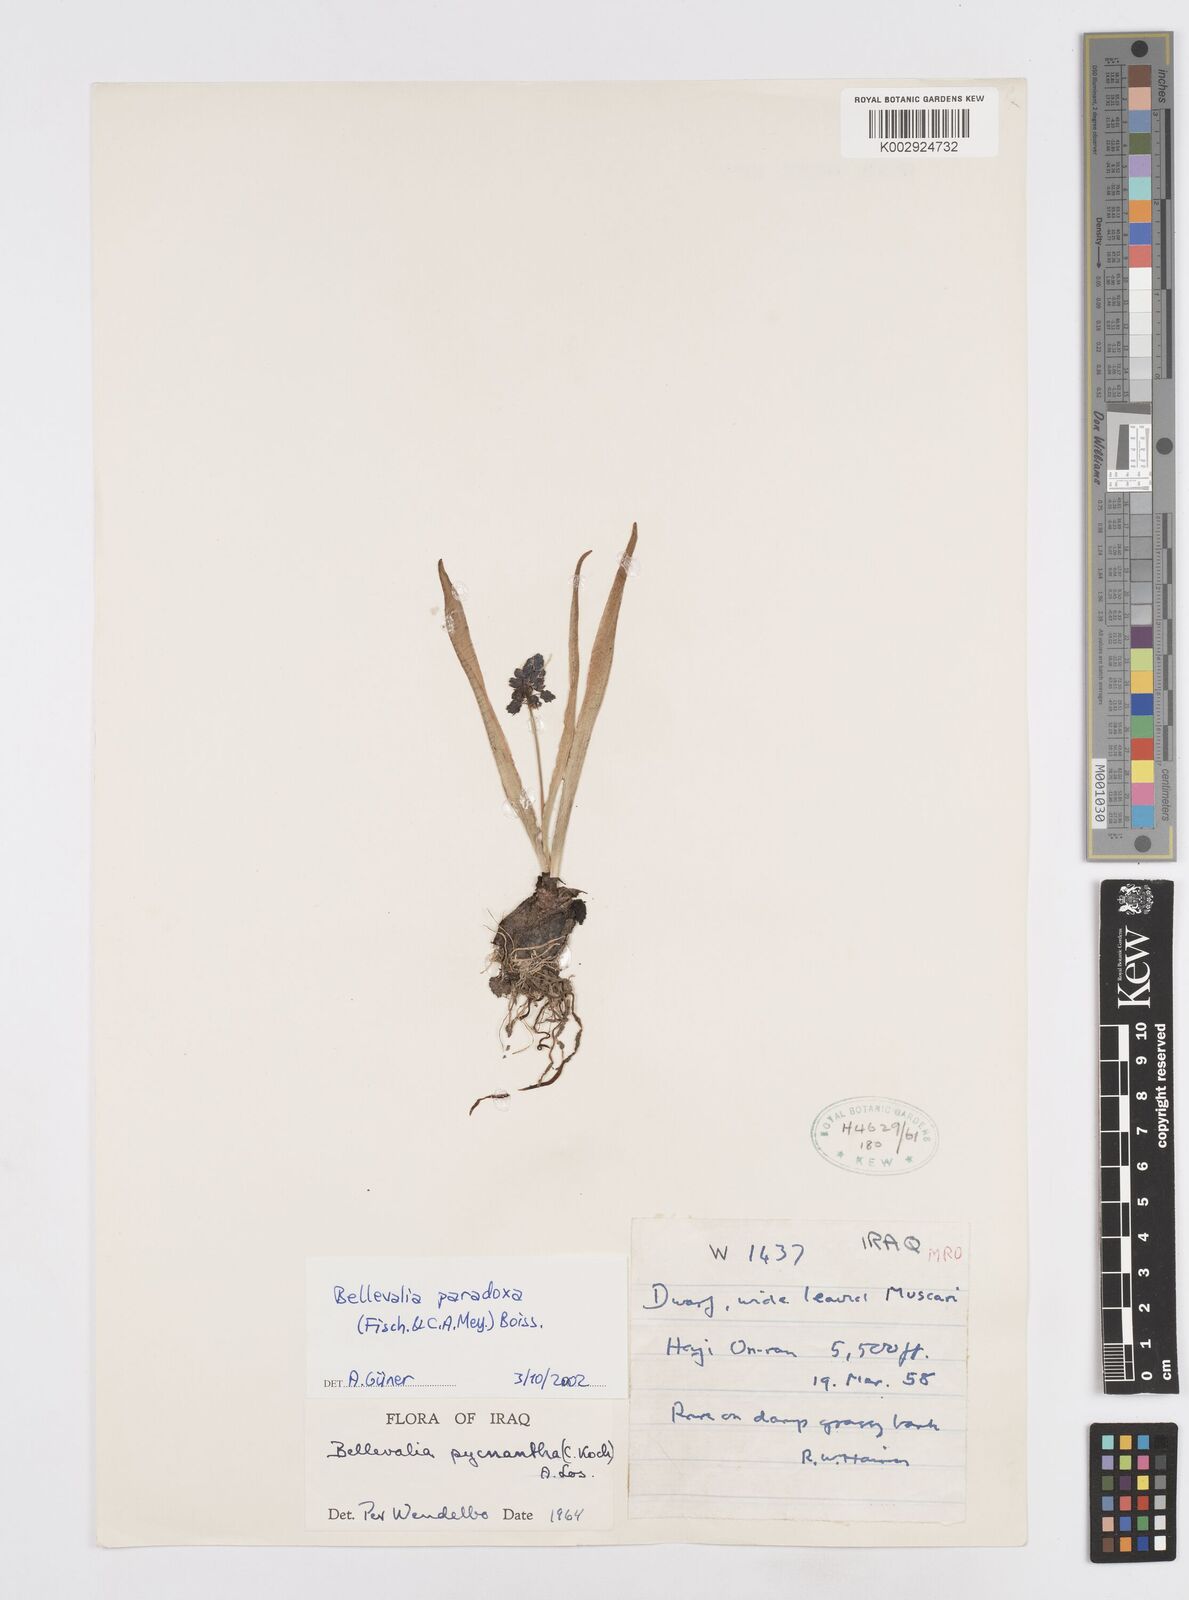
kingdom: Plantae
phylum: Tracheophyta
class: Liliopsida
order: Asparagales
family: Asparagaceae
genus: Bellevalia
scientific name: Bellevalia paradoxa
